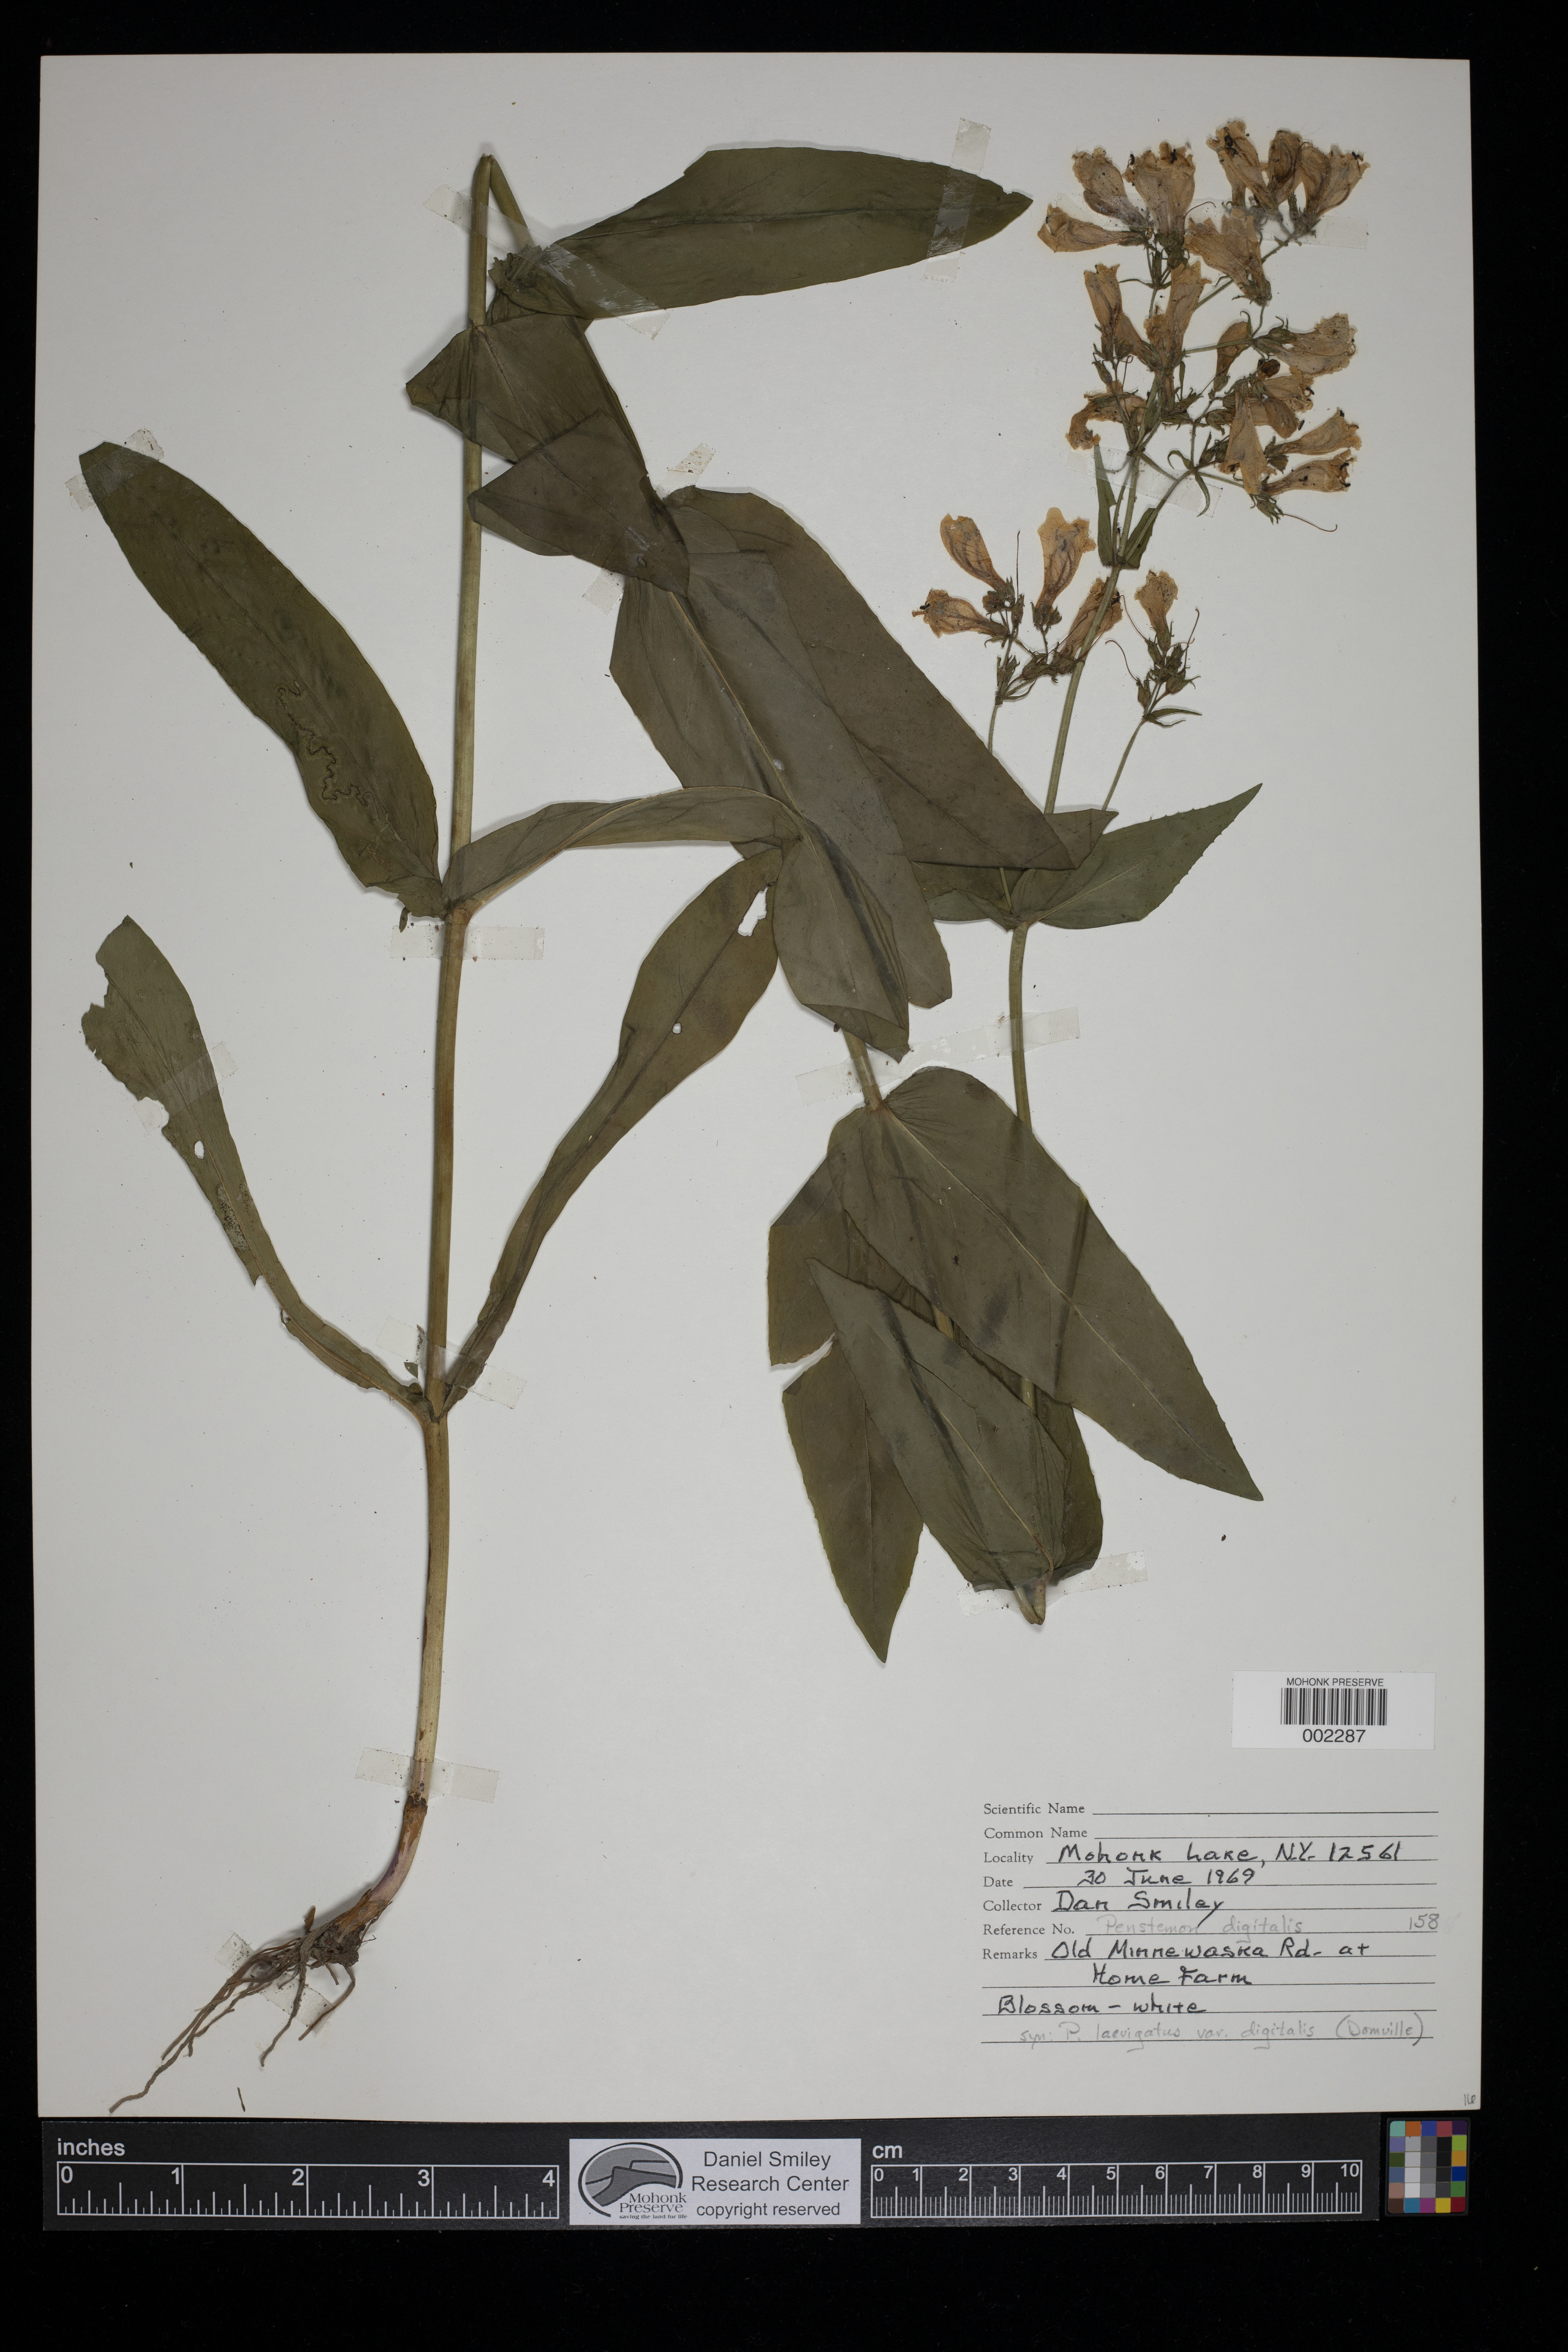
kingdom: Plantae
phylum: Tracheophyta
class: Magnoliopsida
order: Lamiales
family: Plantaginaceae
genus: Penstemon
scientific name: Penstemon digitalis
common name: Foxglove beardtongue
